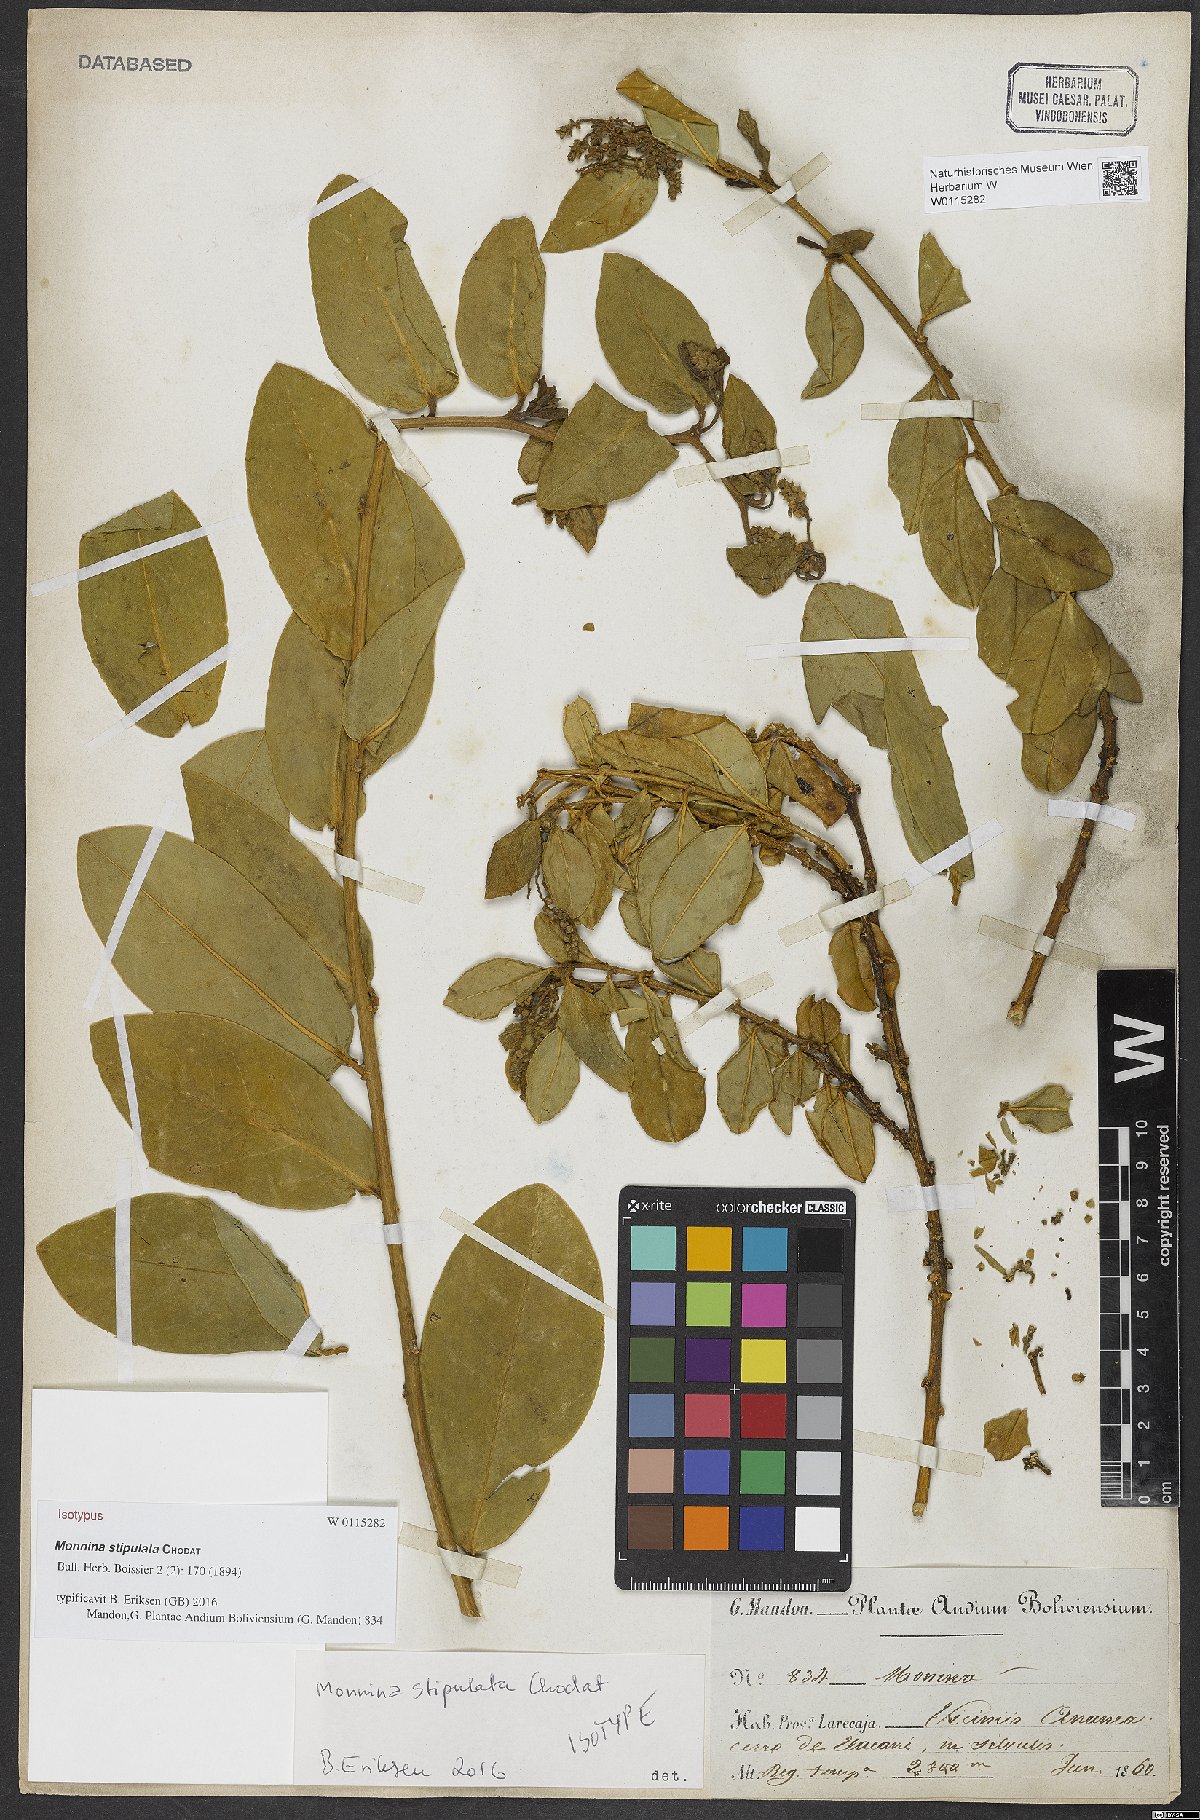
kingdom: Plantae
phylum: Tracheophyta
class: Magnoliopsida
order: Fabales
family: Polygalaceae
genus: Monnina
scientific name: Monnina stipulata
